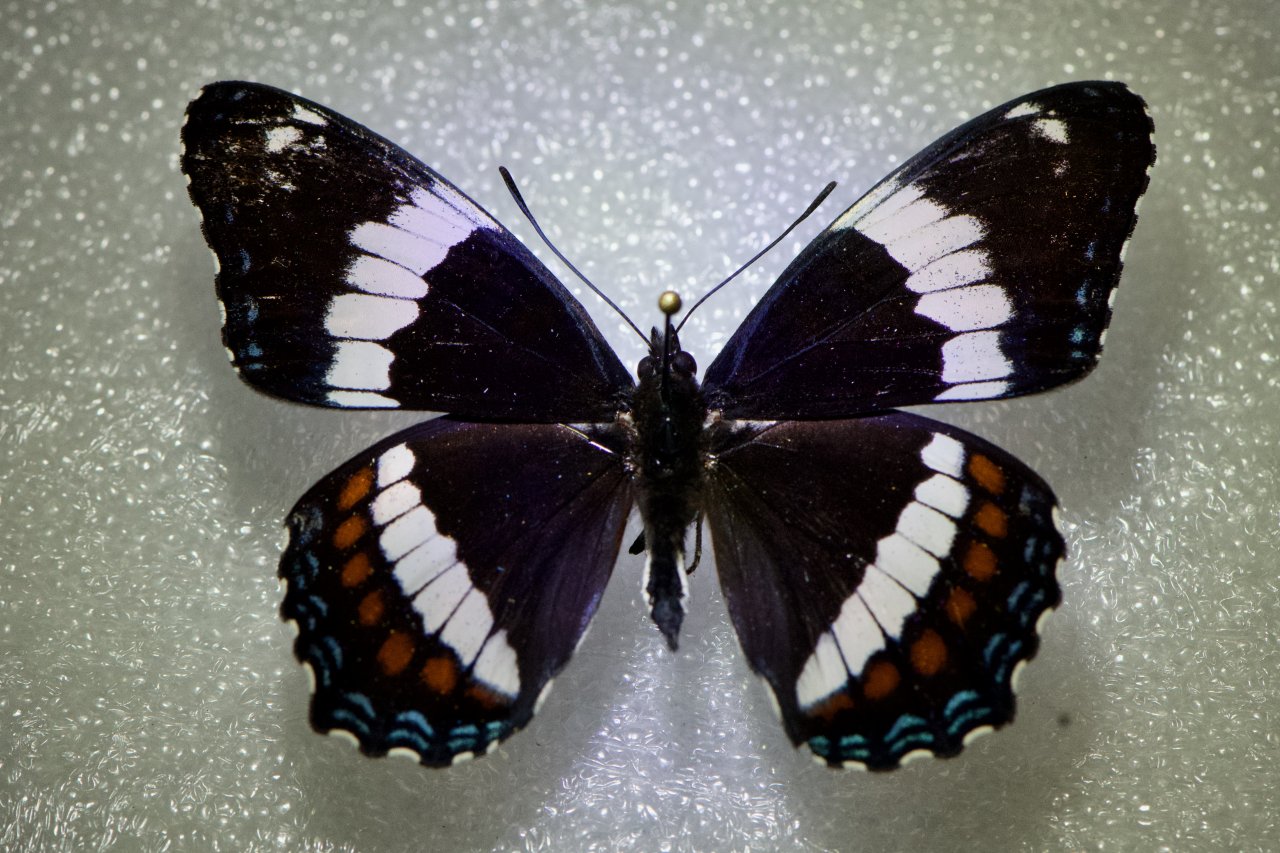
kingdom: Animalia
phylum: Arthropoda
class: Insecta
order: Lepidoptera
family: Nymphalidae
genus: Limenitis
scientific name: Limenitis arthemis
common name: Red-spotted Admiral
